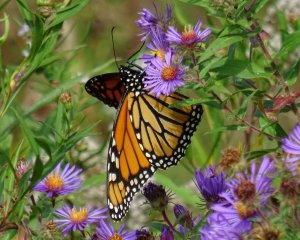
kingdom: Animalia
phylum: Arthropoda
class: Insecta
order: Lepidoptera
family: Nymphalidae
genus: Danaus
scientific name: Danaus plexippus
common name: Monarch
